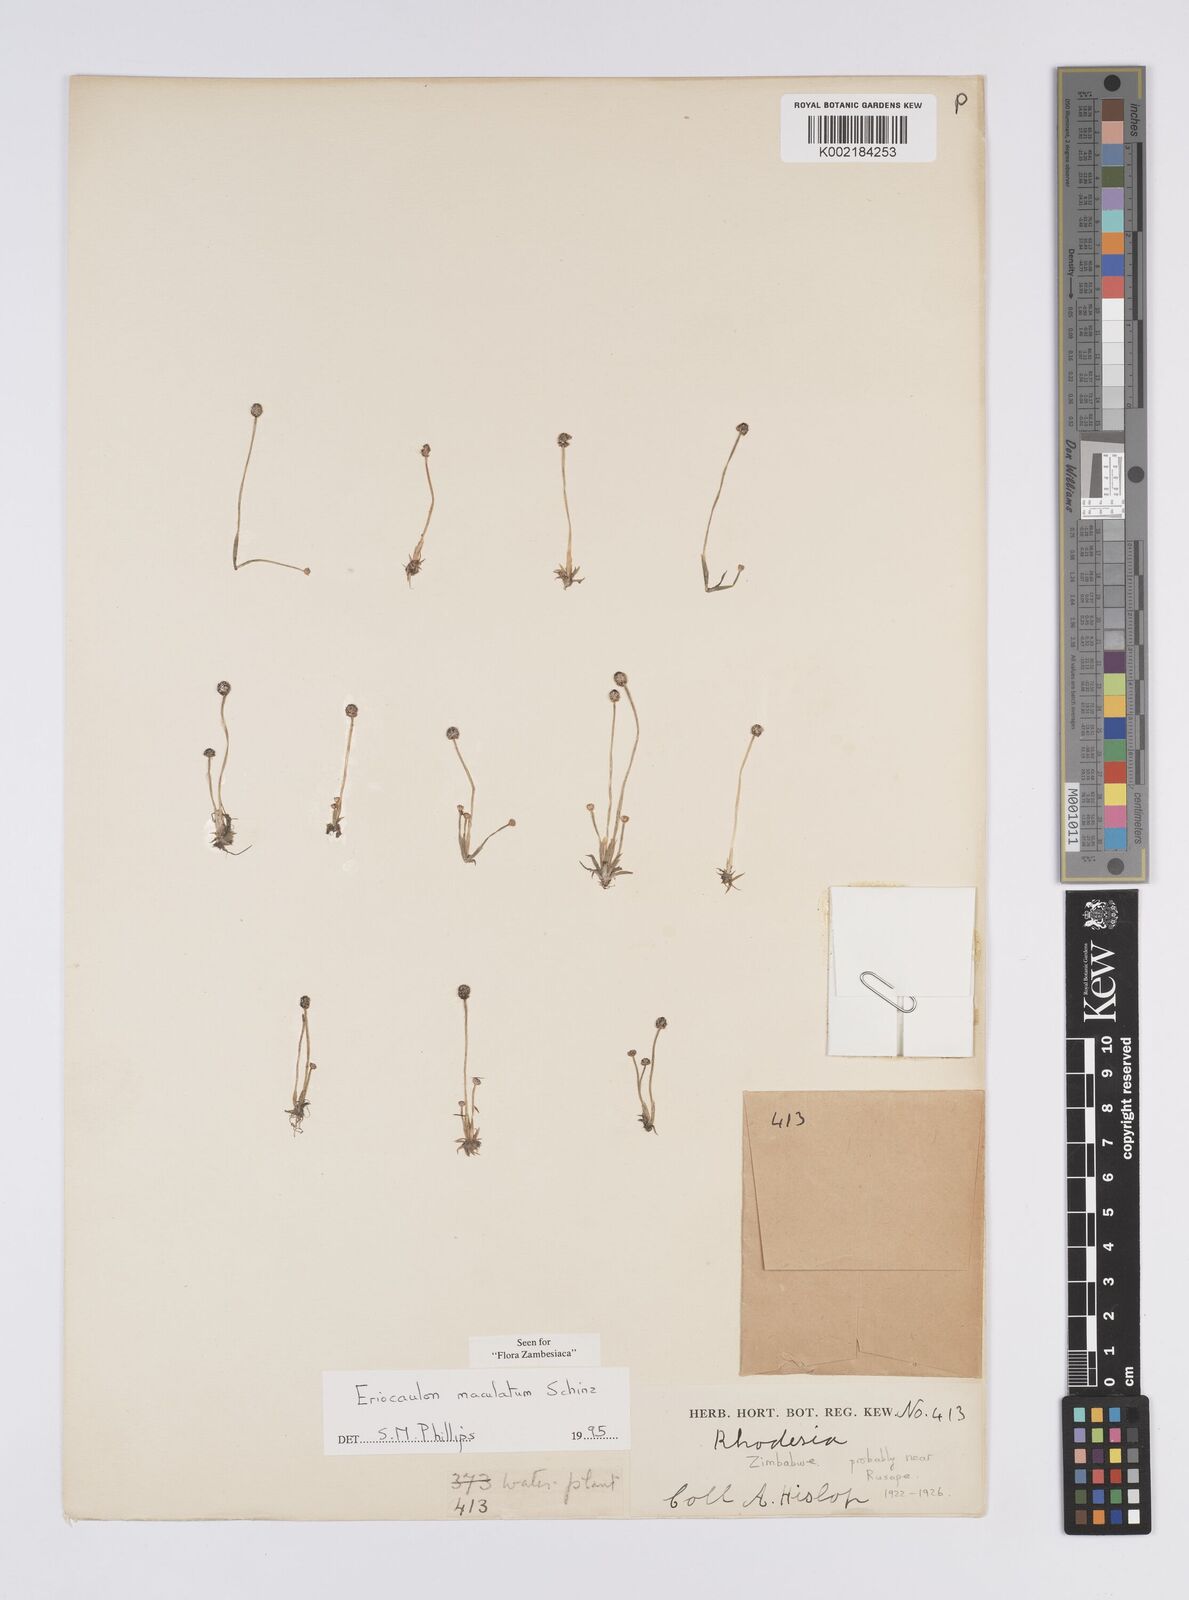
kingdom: Plantae
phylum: Tracheophyta
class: Liliopsida
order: Poales
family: Eriocaulaceae
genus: Eriocaulon
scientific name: Eriocaulon maculatum
